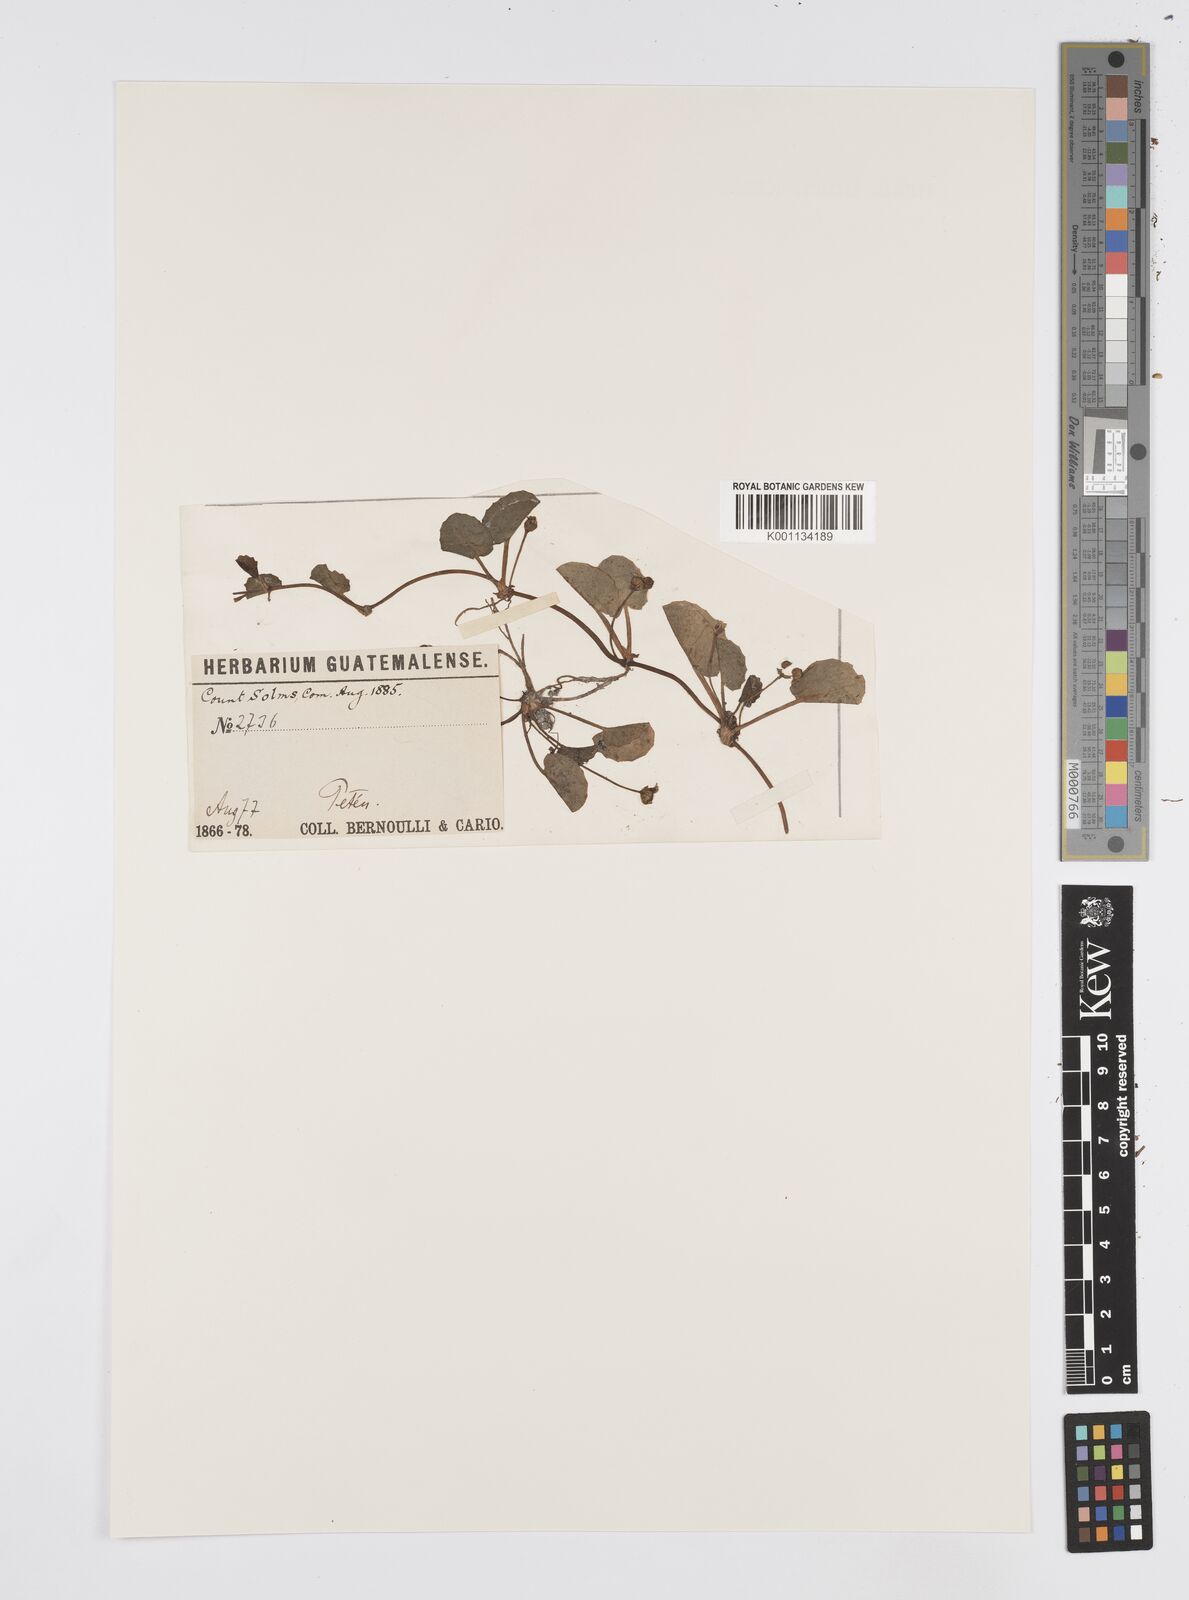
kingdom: Plantae
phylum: Tracheophyta
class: Magnoliopsida
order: Apiales
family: Apiaceae
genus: Centella
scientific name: Centella asiatica
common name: Spadeleaf
